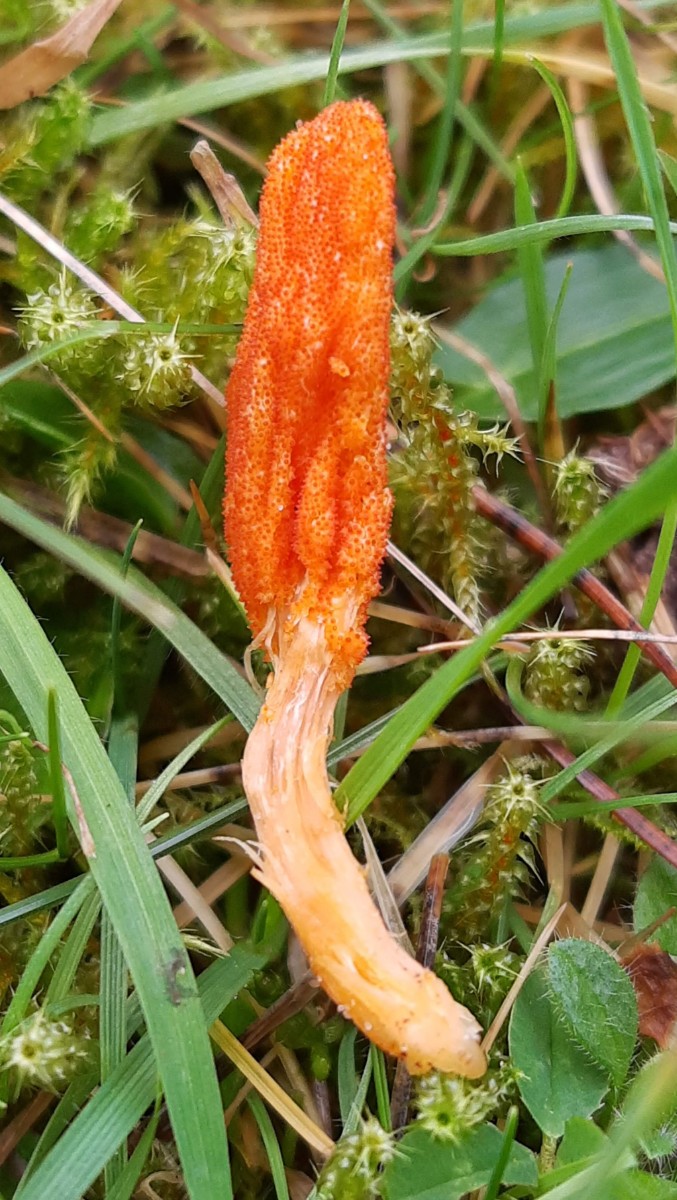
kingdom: Fungi
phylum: Ascomycota
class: Sordariomycetes
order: Hypocreales
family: Cordycipitaceae
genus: Cordyceps
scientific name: Cordyceps militaris
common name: puppe-snyltekølle
